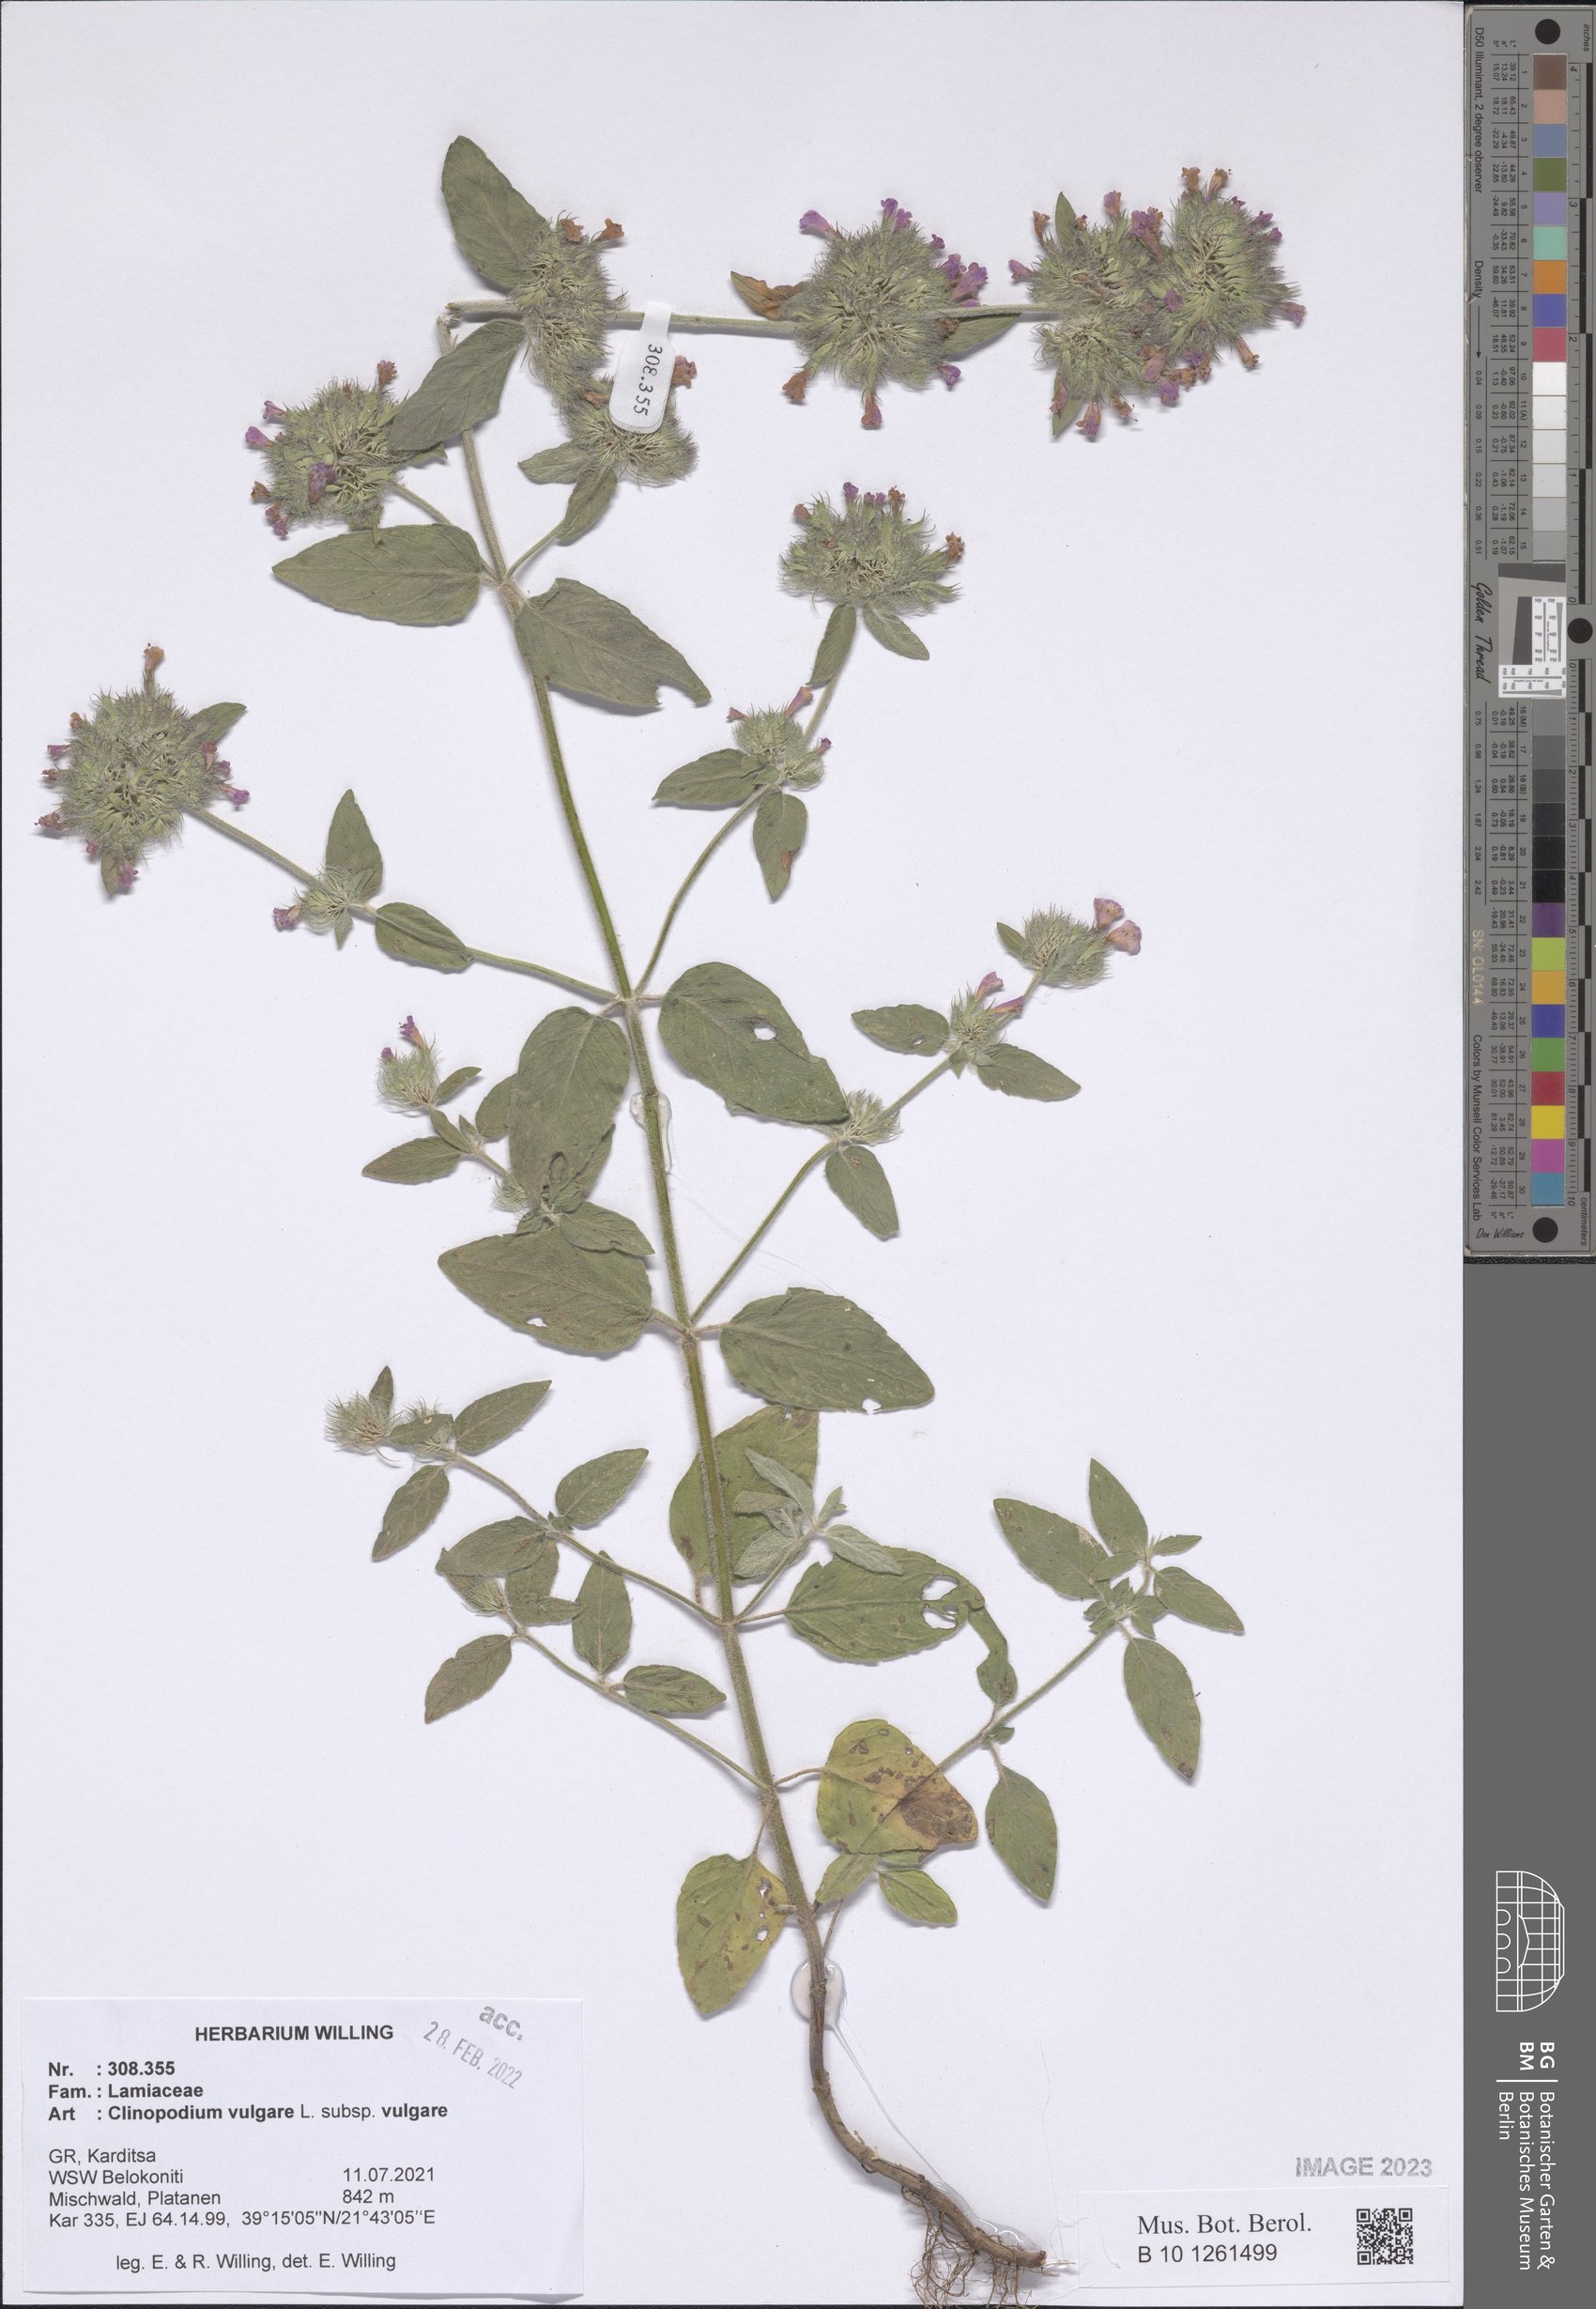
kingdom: Plantae
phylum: Tracheophyta
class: Magnoliopsida
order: Lamiales
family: Lamiaceae
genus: Clinopodium
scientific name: Clinopodium vulgare
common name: Wild basil
